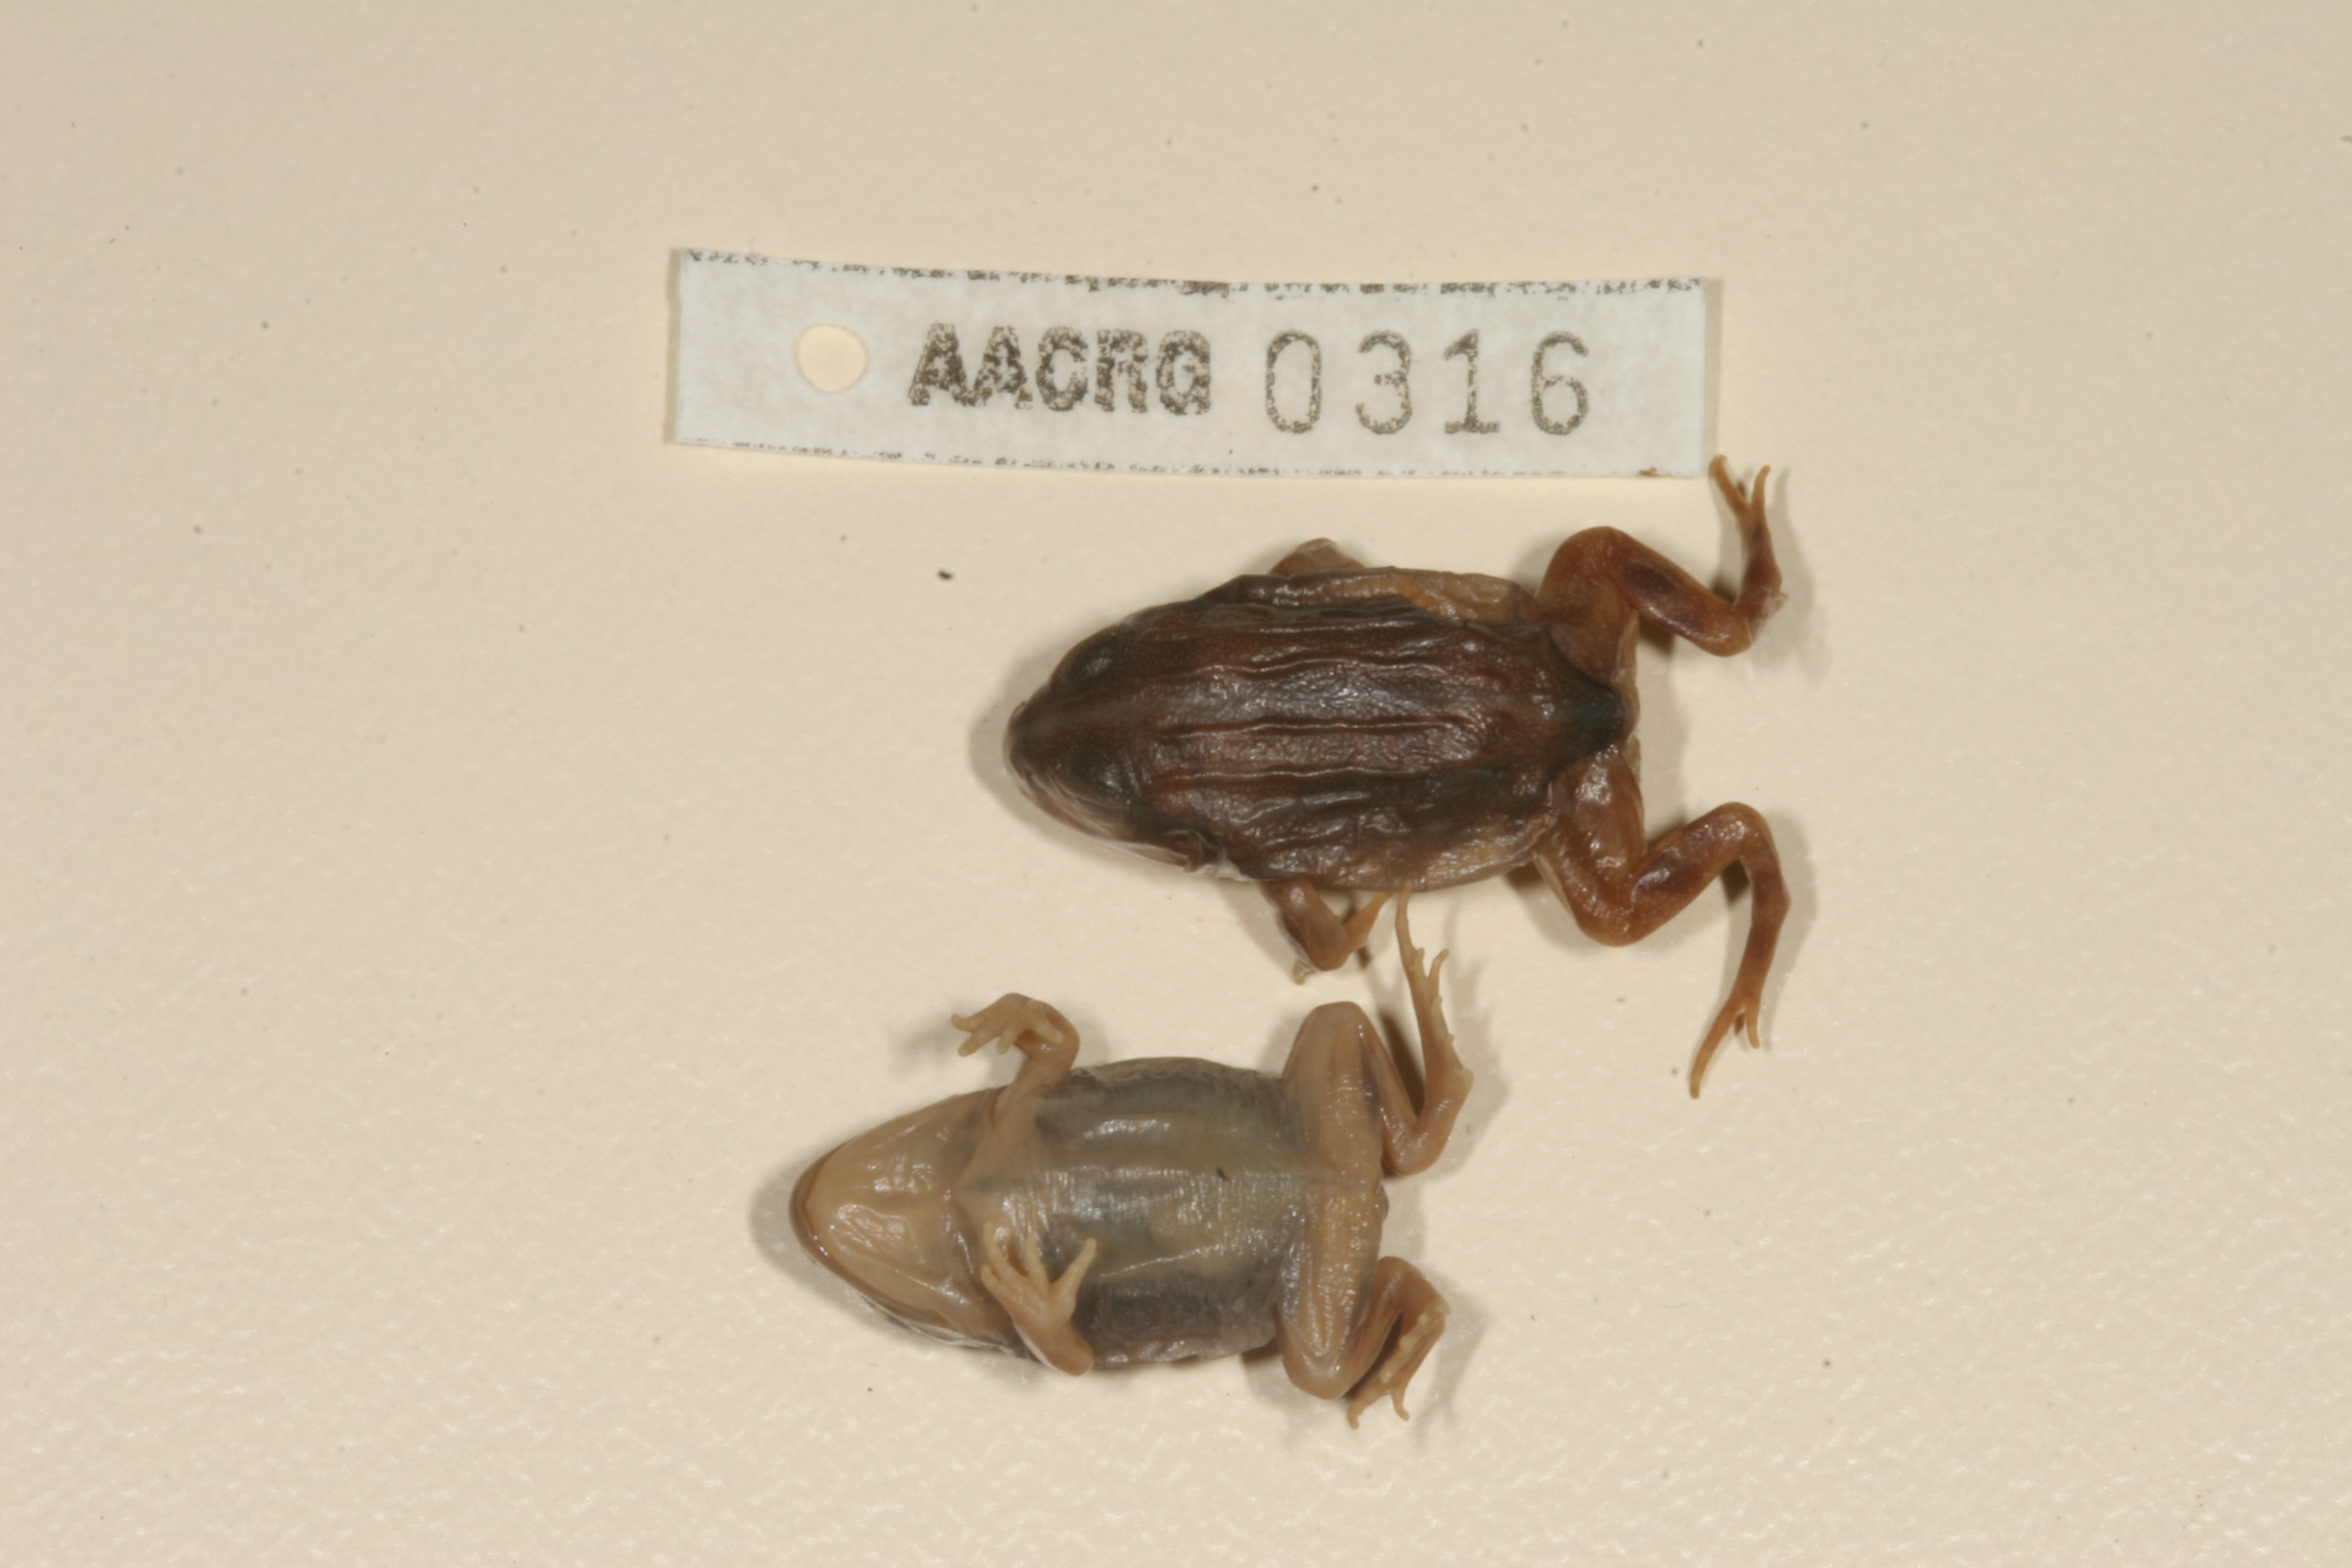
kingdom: Animalia
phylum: Chordata
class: Amphibia
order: Anura
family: Pyxicephalidae
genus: Pyxicephalus
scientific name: Pyxicephalus adspersus
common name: African bullfrog
